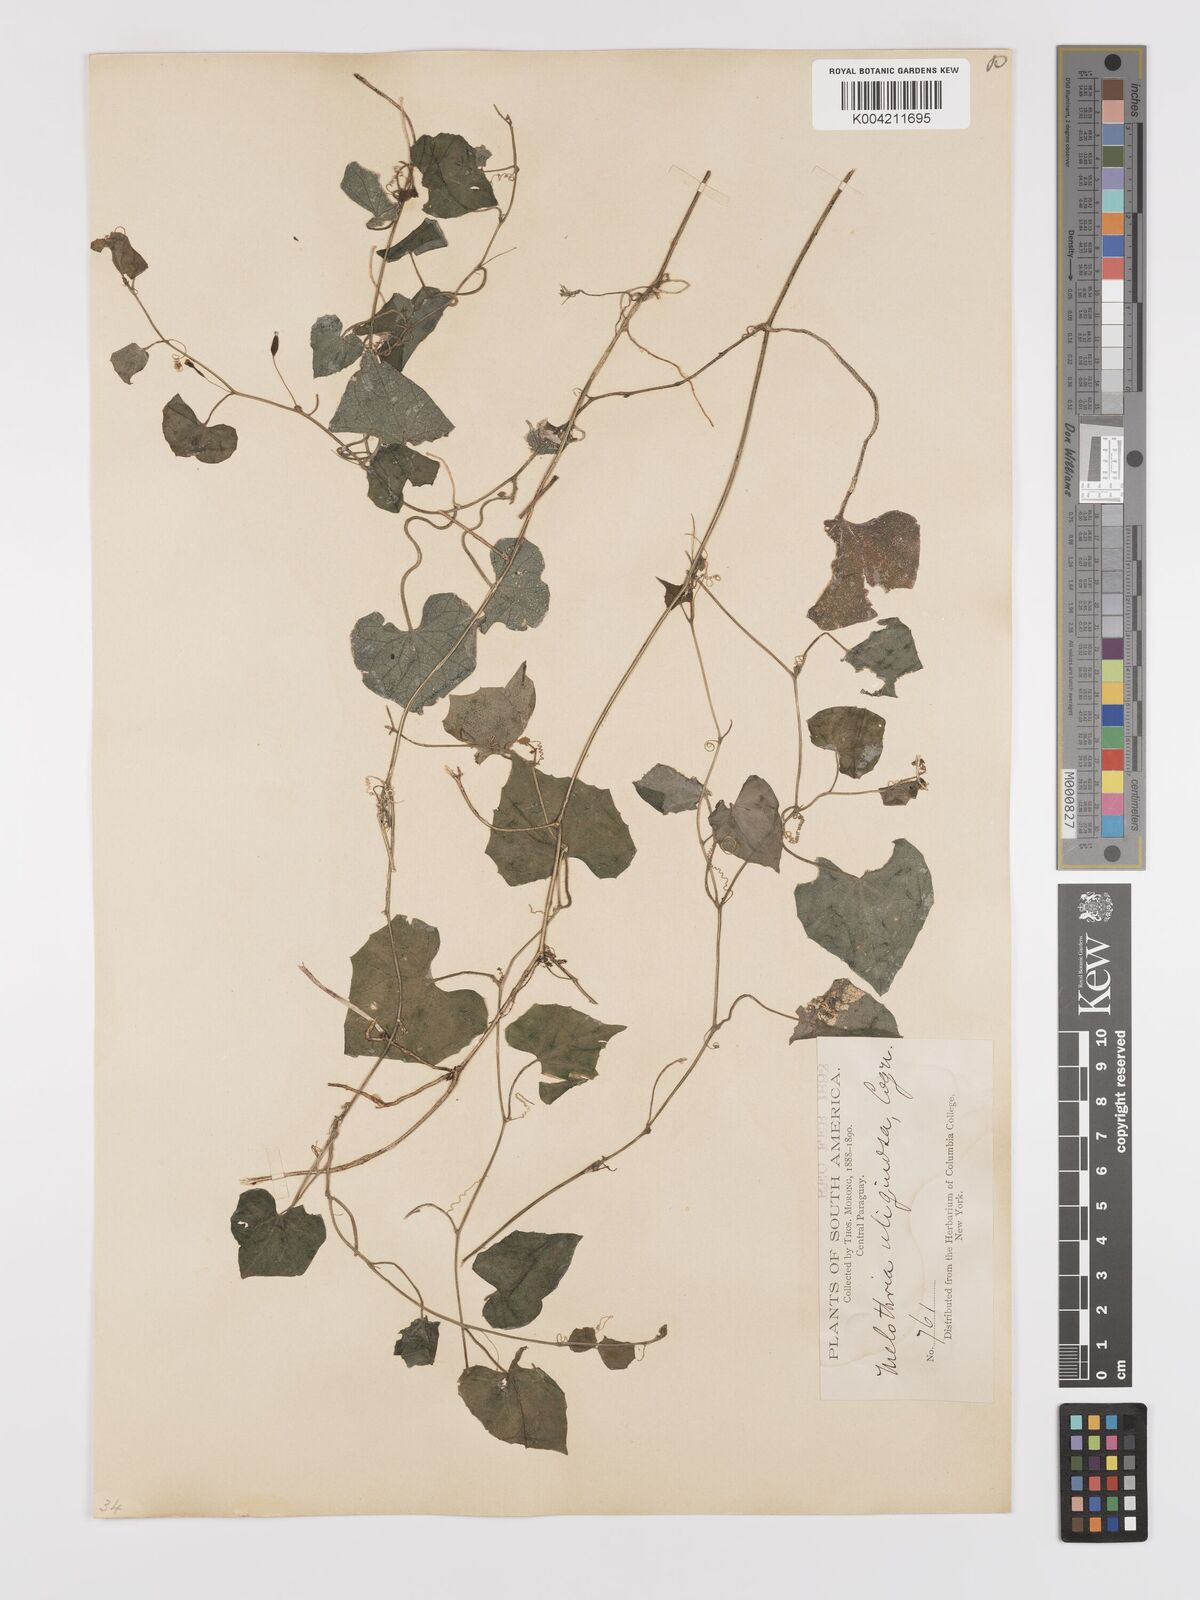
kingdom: Plantae
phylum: Tracheophyta
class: Magnoliopsida
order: Cucurbitales
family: Cucurbitaceae
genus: Melothria
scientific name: Melothria
